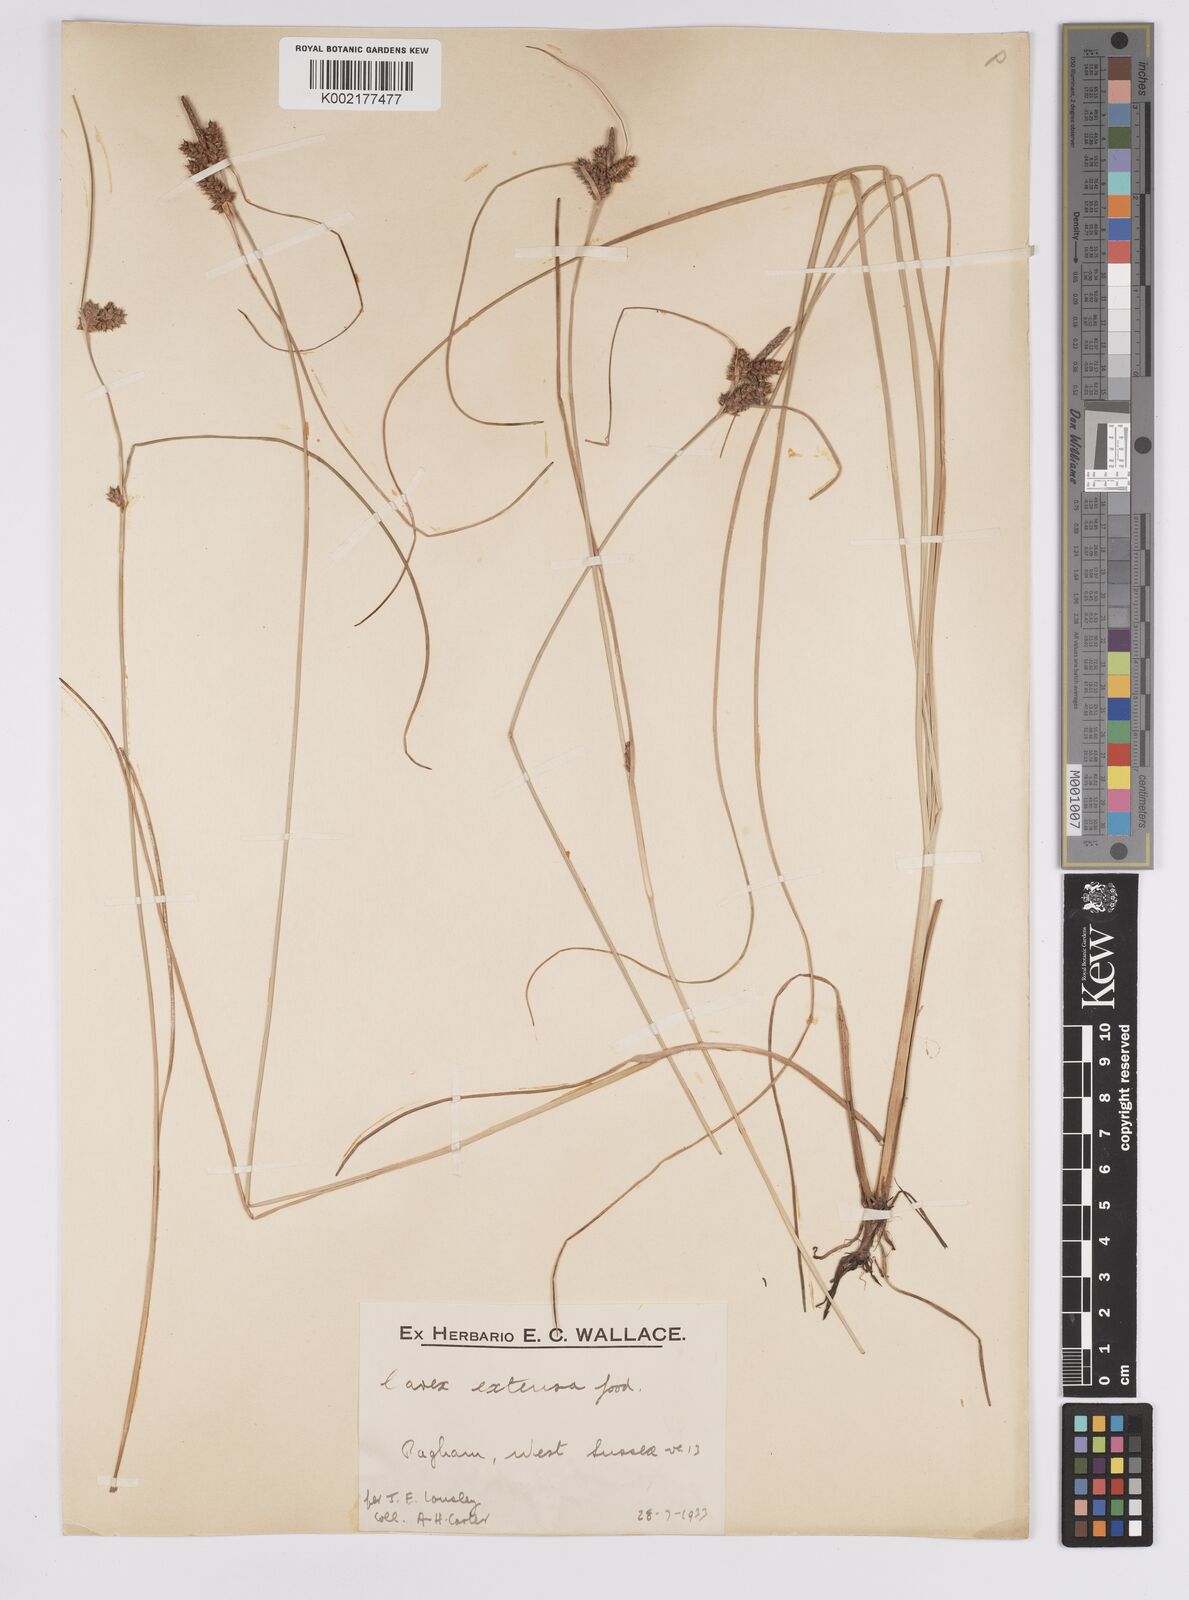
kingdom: Plantae
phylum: Tracheophyta
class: Liliopsida
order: Poales
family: Cyperaceae
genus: Carex
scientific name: Carex extensa
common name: Long-bracted sedge
